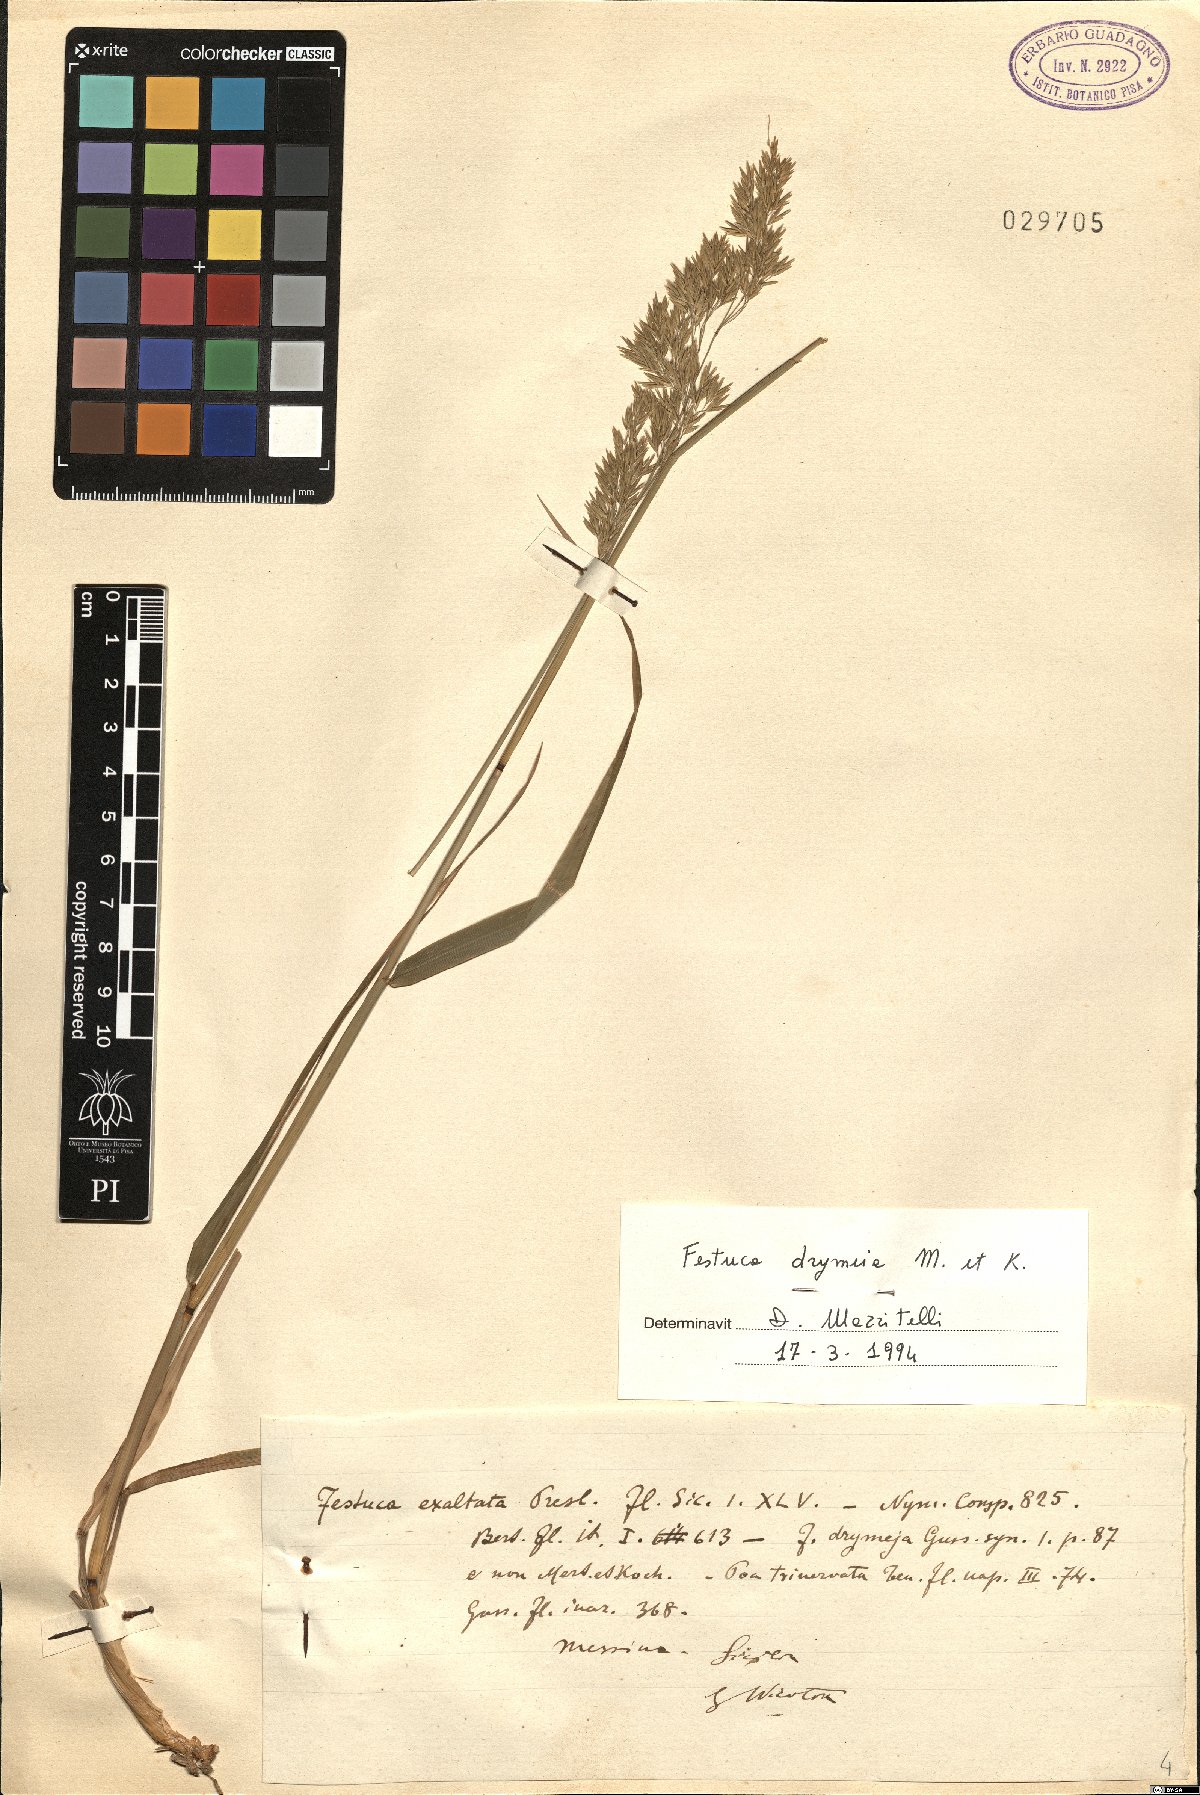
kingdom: Plantae
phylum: Tracheophyta
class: Liliopsida
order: Poales
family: Poaceae
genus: Festuca
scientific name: Festuca drymeja
